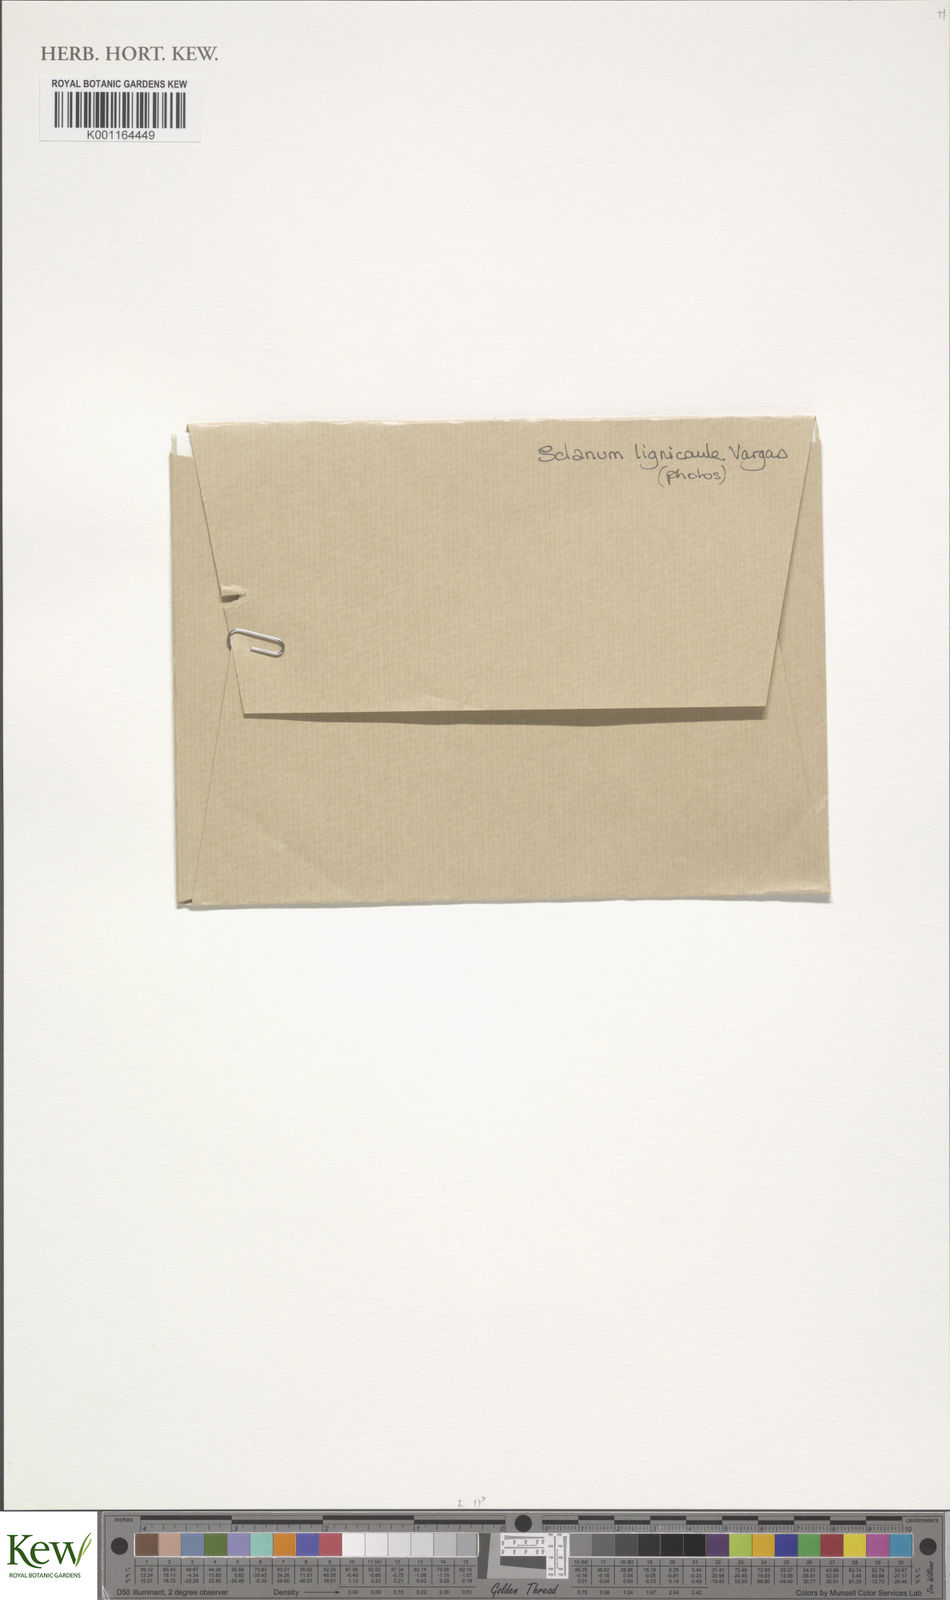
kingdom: Plantae
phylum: Tracheophyta
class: Magnoliopsida
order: Solanales
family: Solanaceae
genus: Solanum
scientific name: Solanum lignicaule
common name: Fox potato
